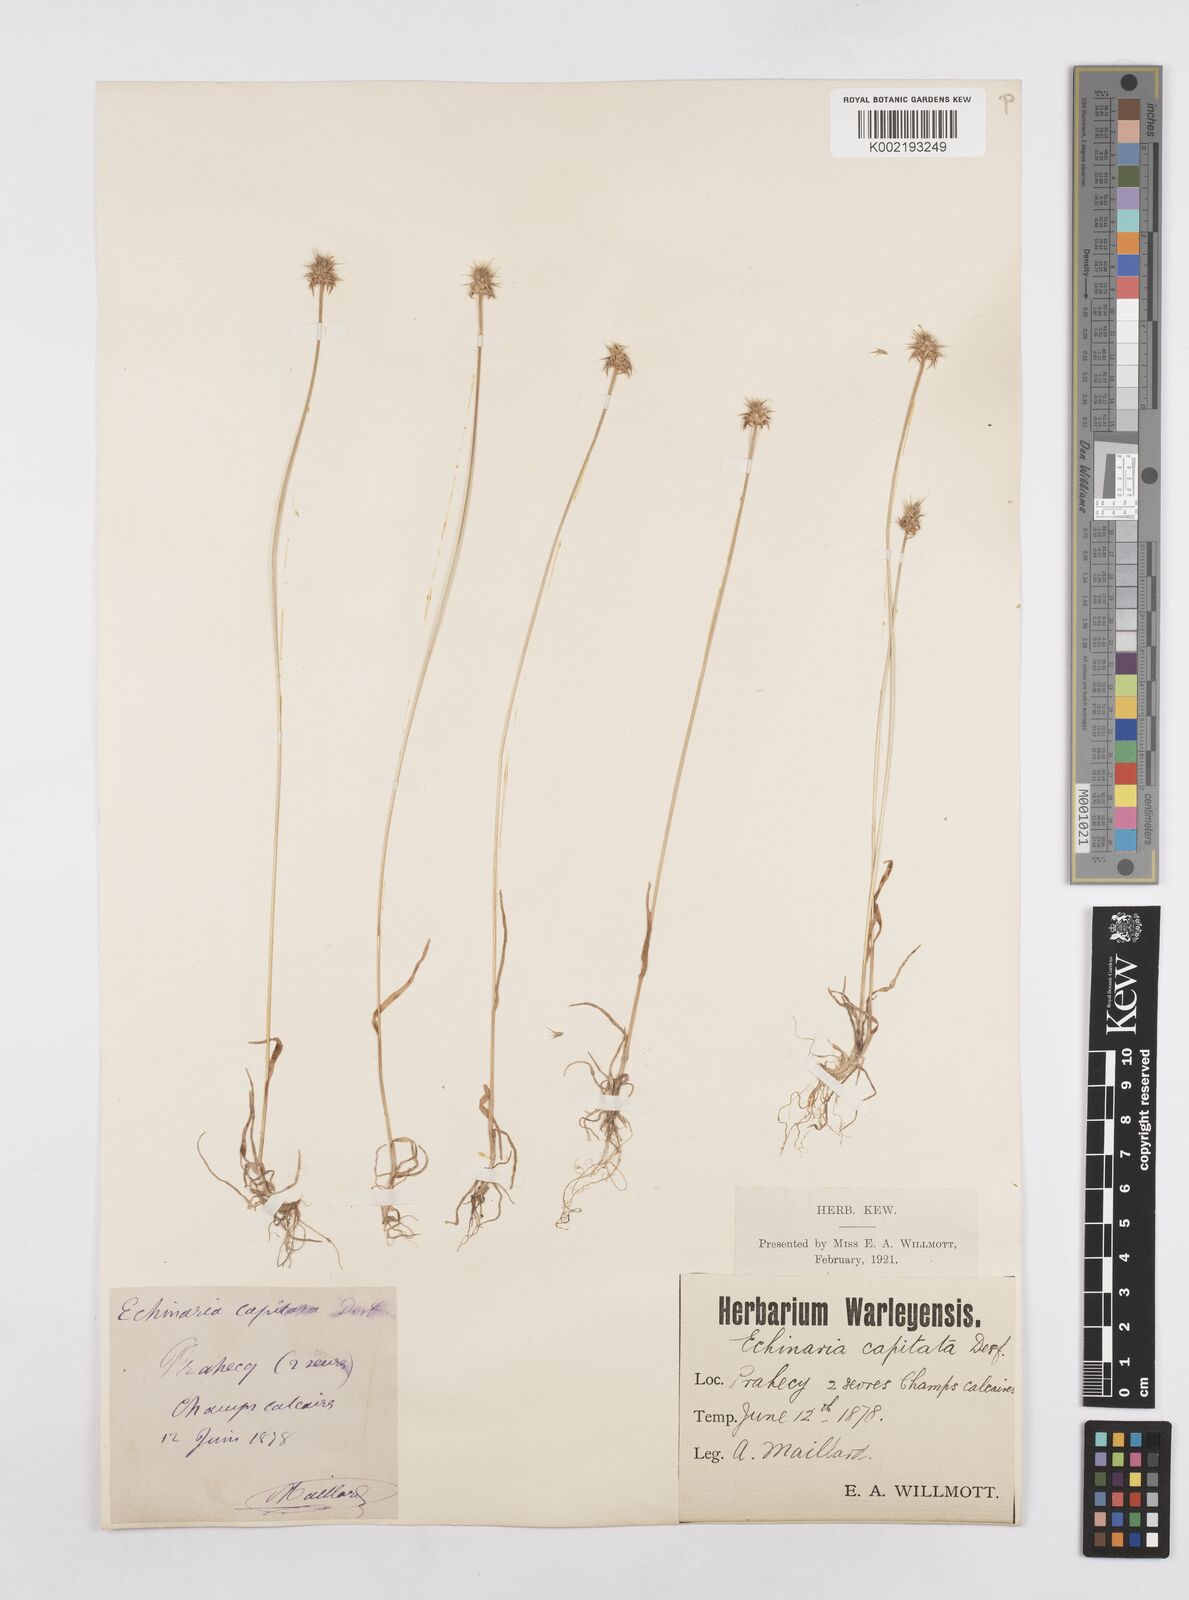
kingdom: Plantae
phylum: Tracheophyta
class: Liliopsida
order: Poales
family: Poaceae
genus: Echinaria
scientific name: Echinaria capitata
